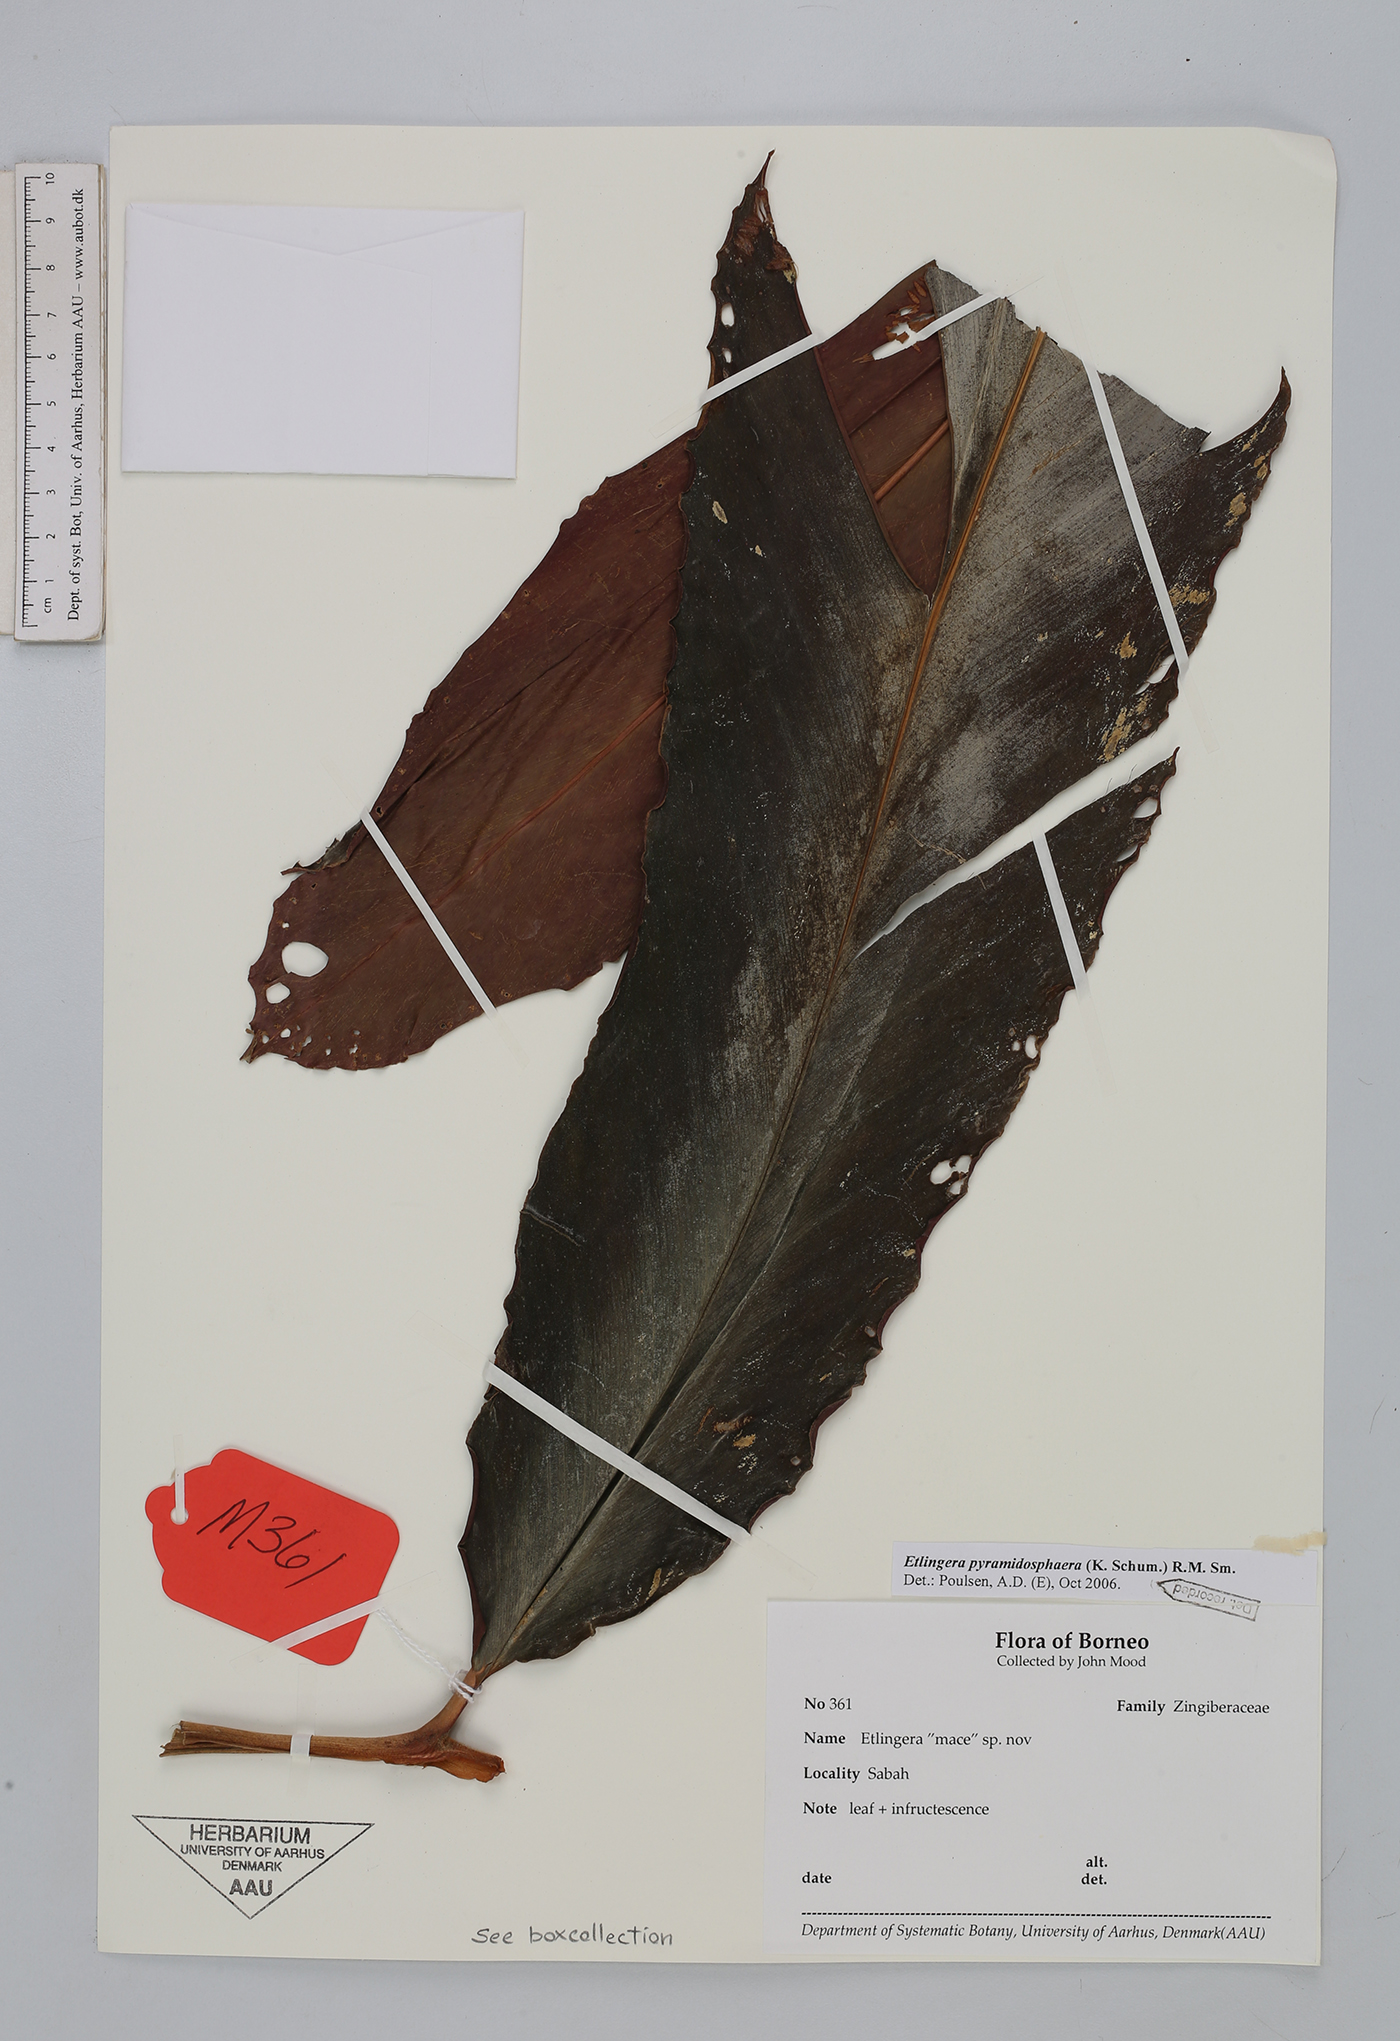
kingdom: Plantae
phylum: Tracheophyta
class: Liliopsida
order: Zingiberales
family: Zingiberaceae
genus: Etlingera
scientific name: Etlingera pyramidosphaera
